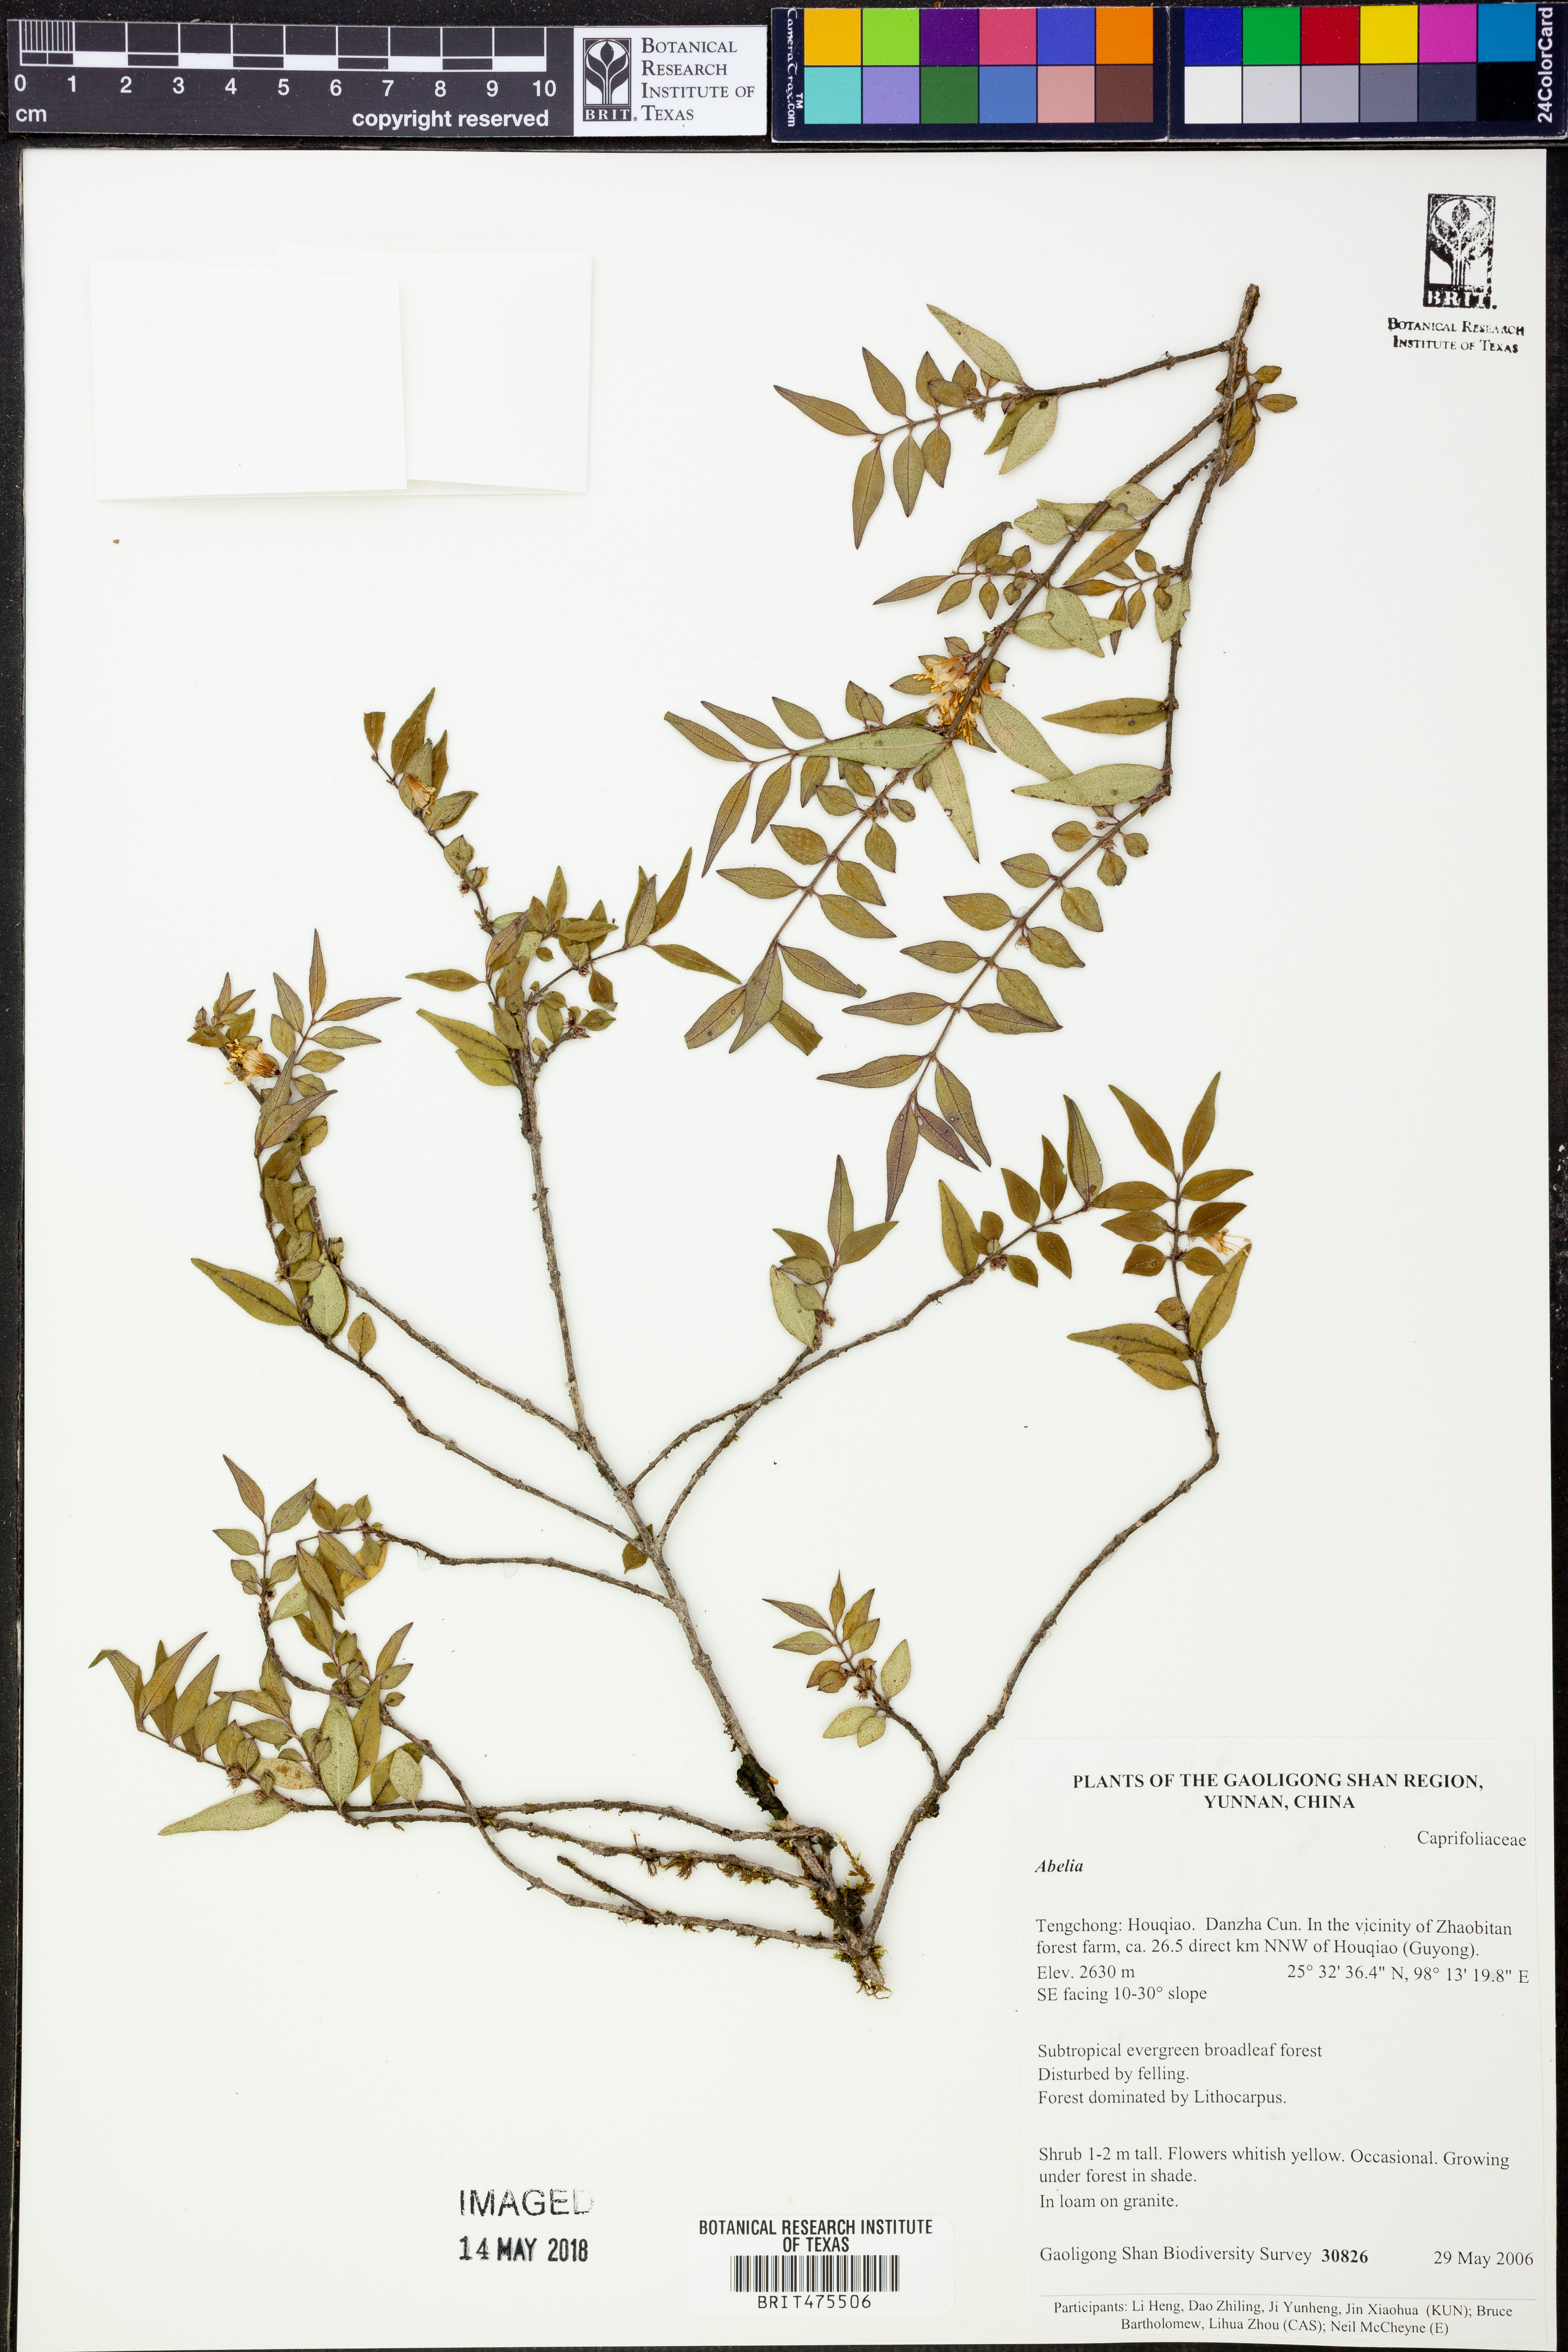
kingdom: Plantae
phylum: Tracheophyta
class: Magnoliopsida
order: Dipsacales
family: Caprifoliaceae
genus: Abelia
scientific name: Abelia
